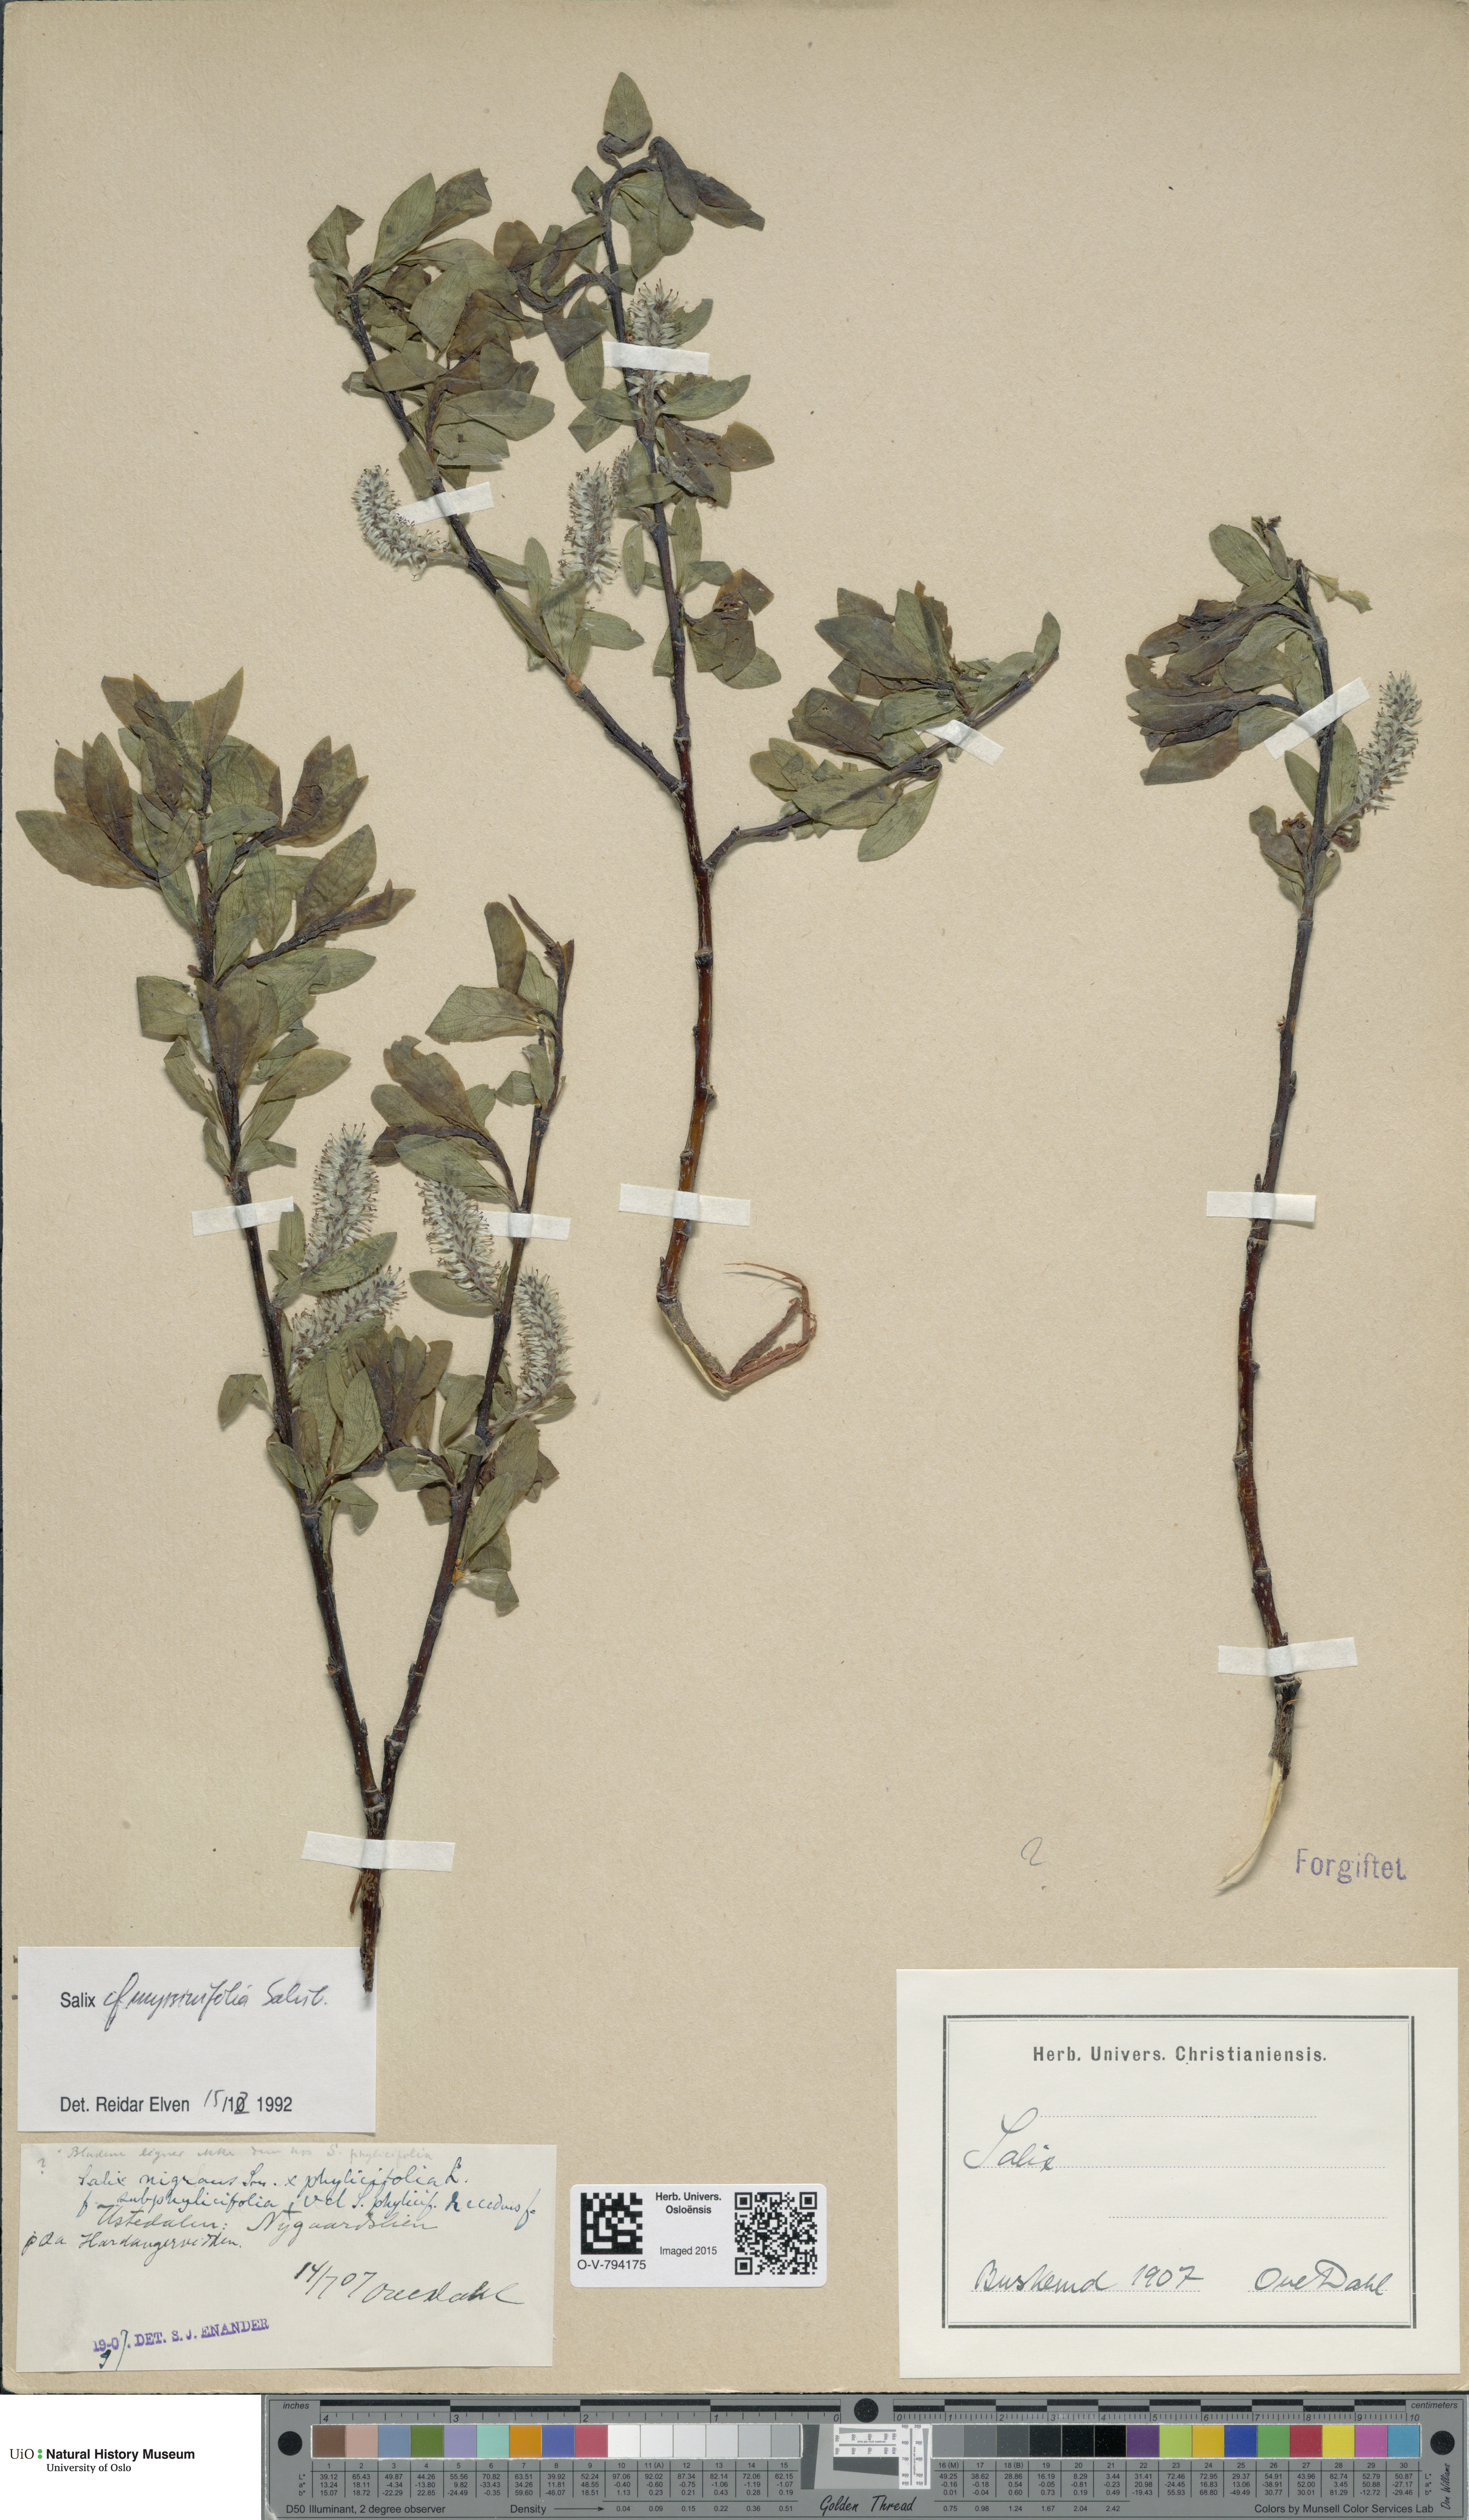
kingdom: Plantae
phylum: Tracheophyta
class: Magnoliopsida
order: Malpighiales
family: Salicaceae
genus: Salix
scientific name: Salix myrsinifolia
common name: Dark-leaved willow
